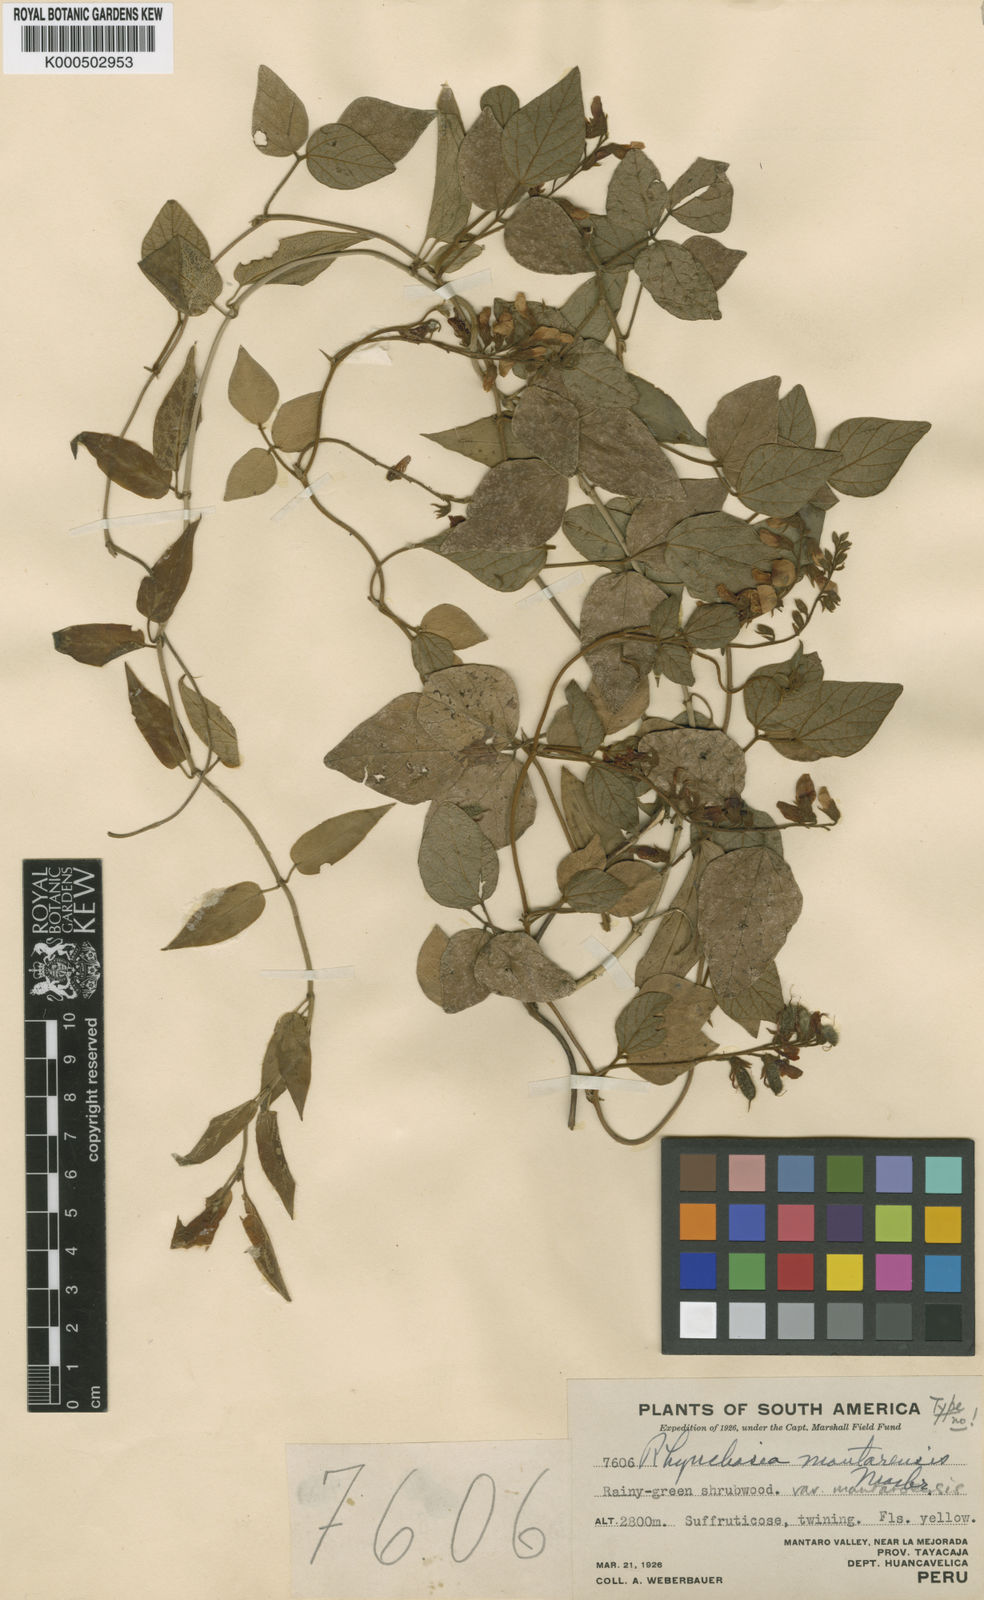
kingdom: Plantae
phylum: Tracheophyta
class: Magnoliopsida
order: Fabales
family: Fabaceae
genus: Rhynchosia
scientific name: Rhynchosia mantaroensis
